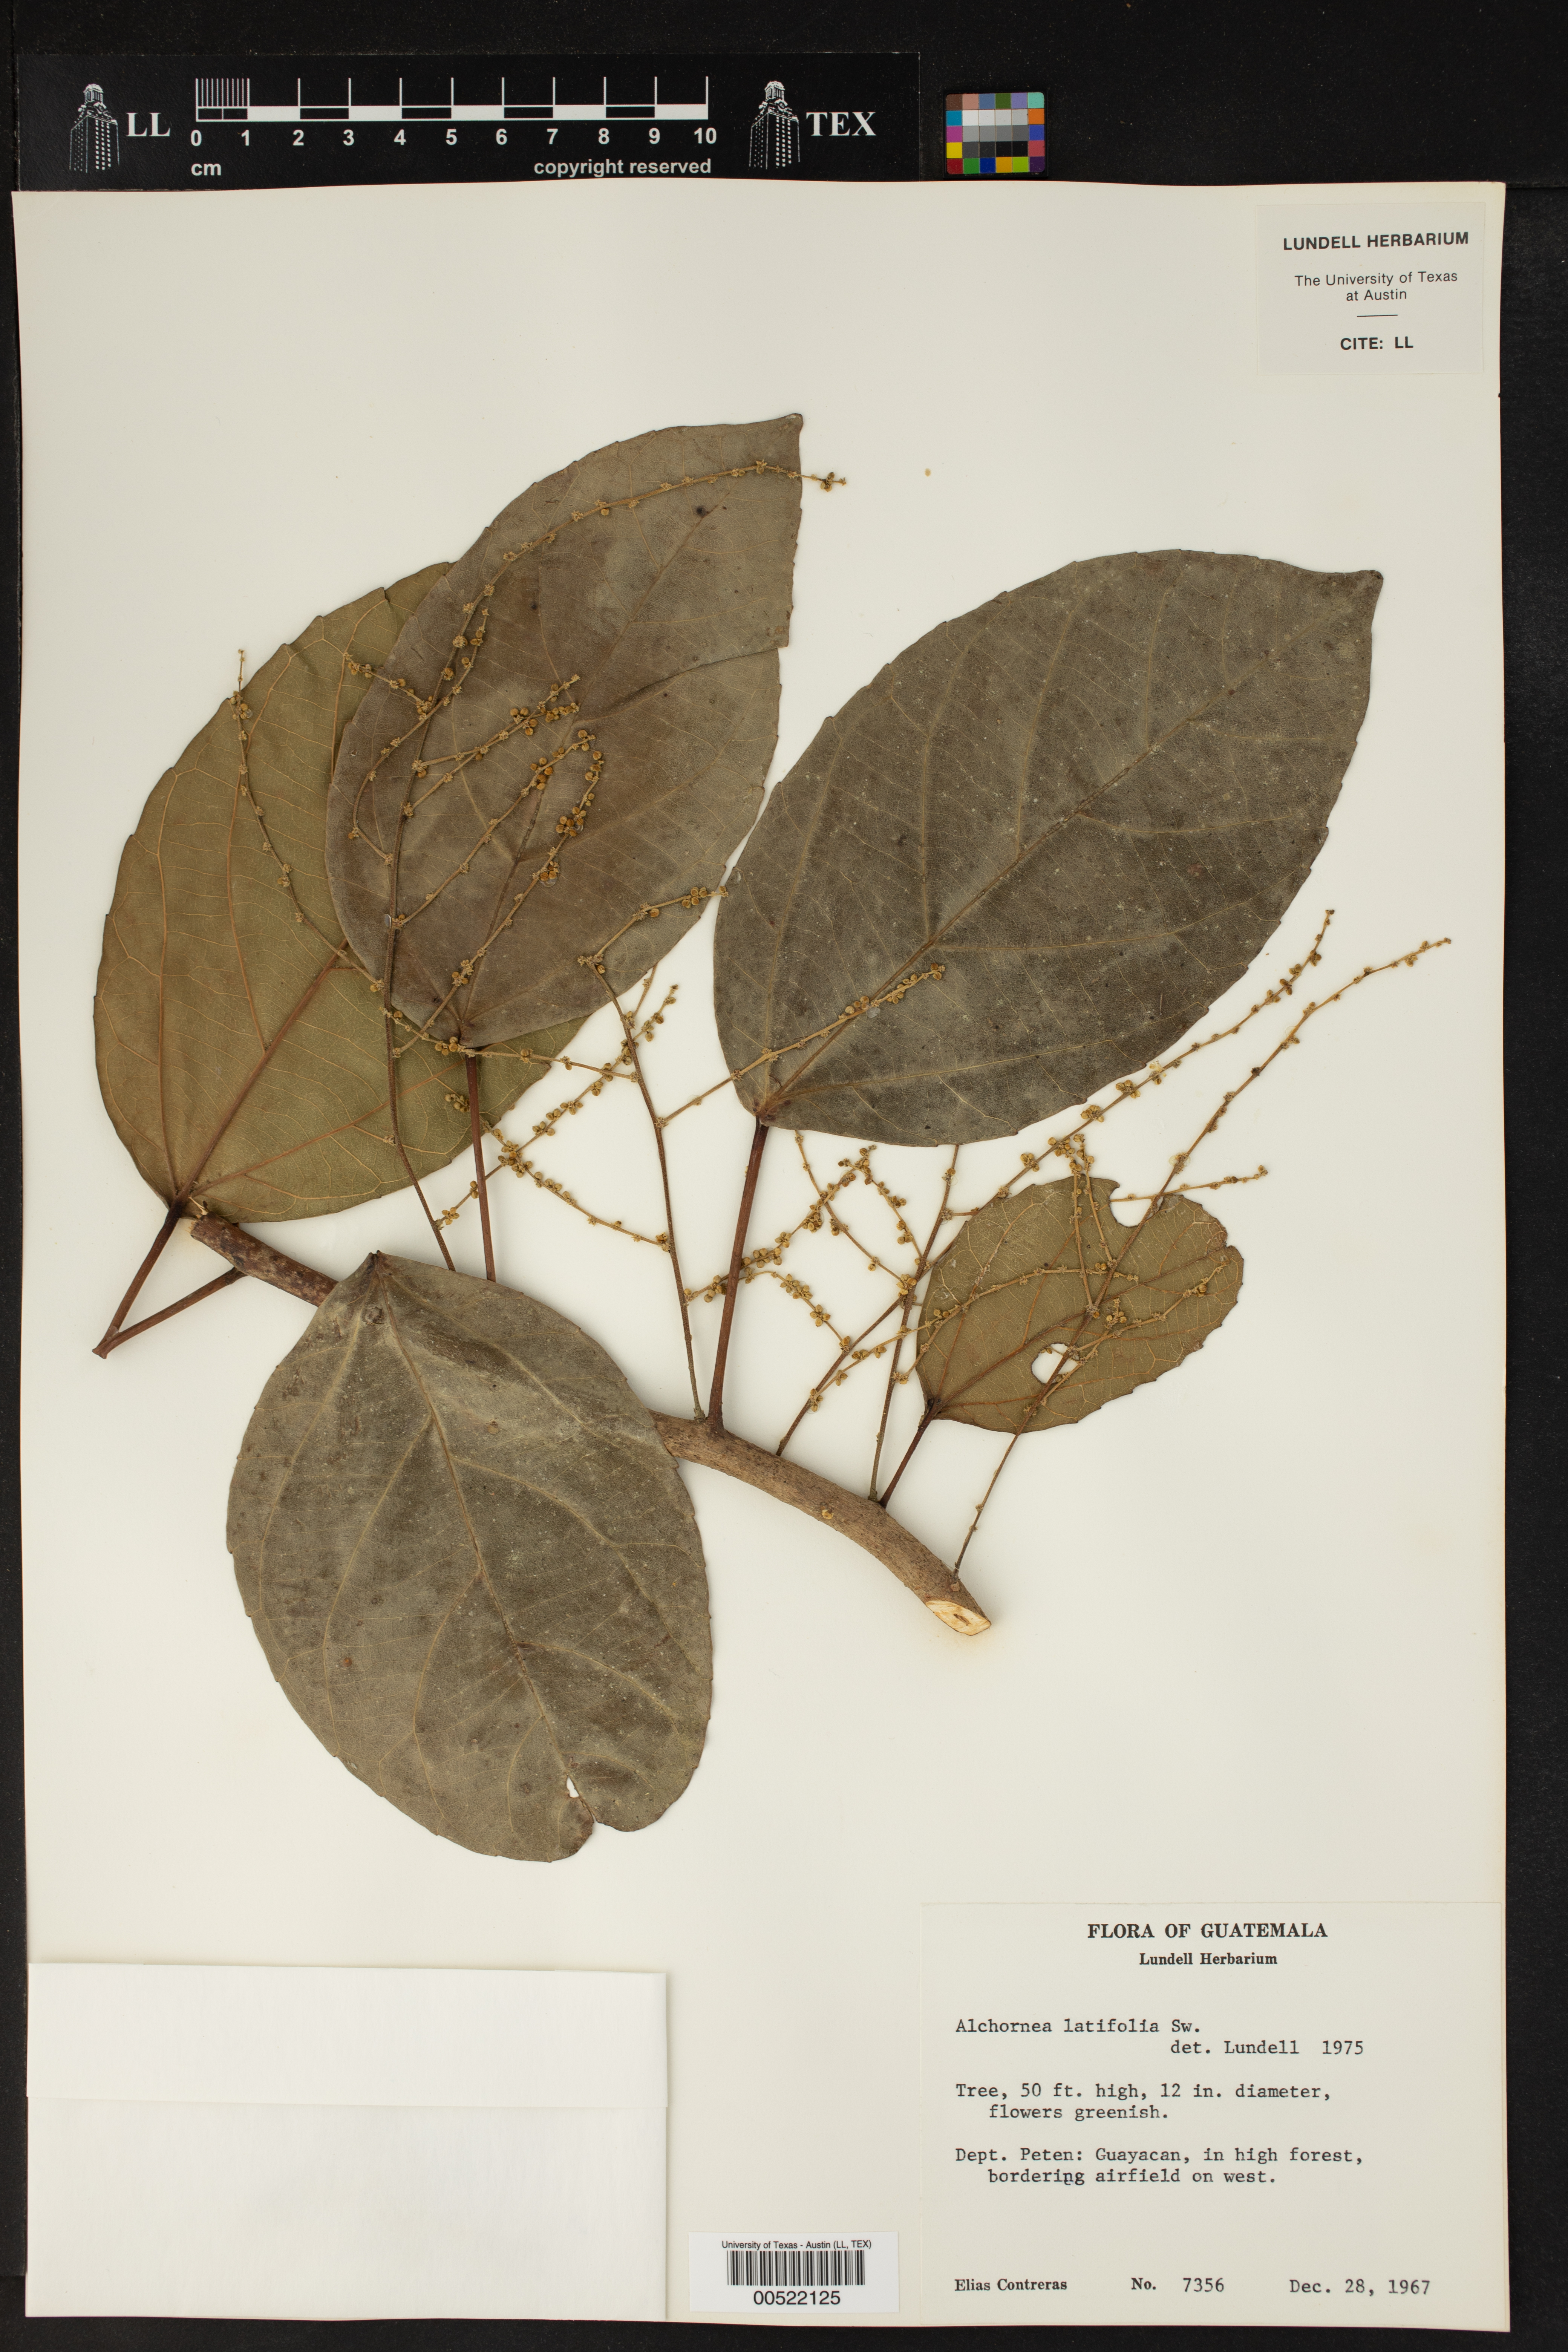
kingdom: Plantae
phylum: Tracheophyta
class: Magnoliopsida
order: Malpighiales
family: Euphorbiaceae
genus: Alchornea
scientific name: Alchornea latifolia
